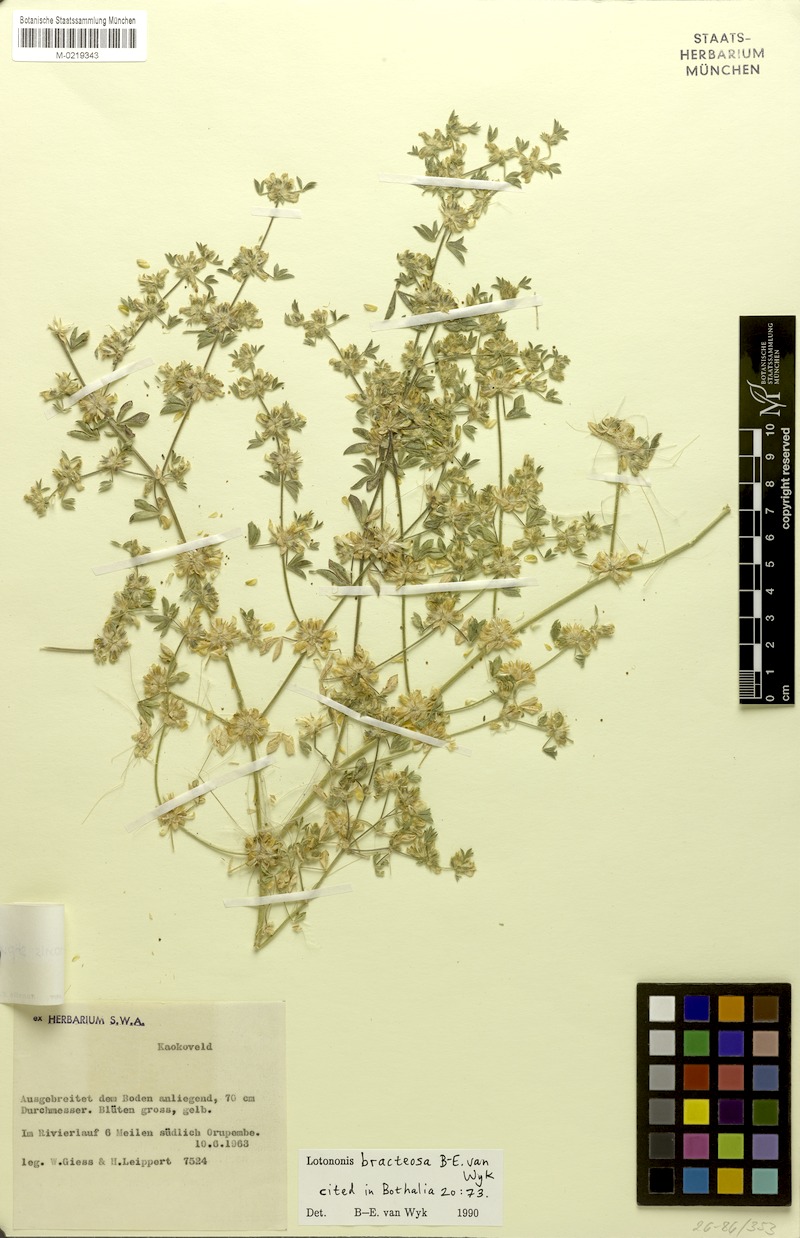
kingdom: Plantae
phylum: Tracheophyta
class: Magnoliopsida
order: Fabales
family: Fabaceae
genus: Leobordea
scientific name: Leobordea bracteosa
